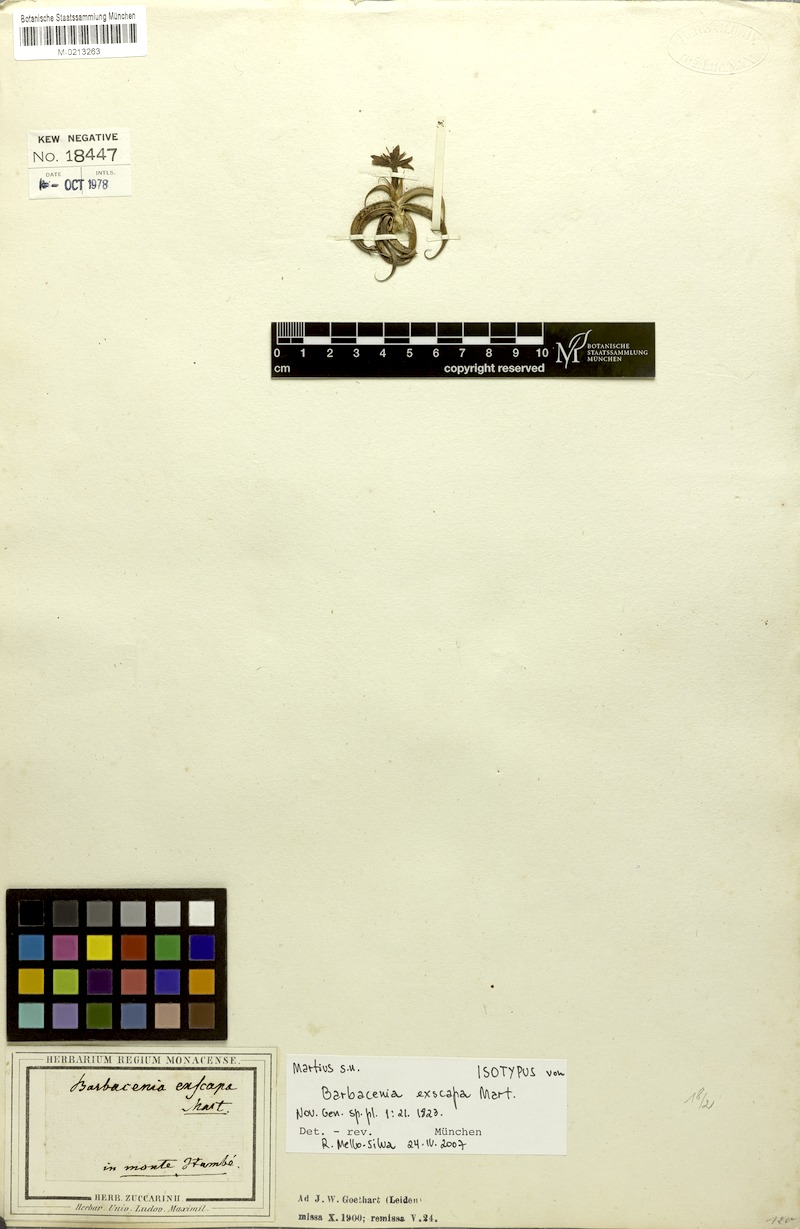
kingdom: Plantae
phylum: Tracheophyta
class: Liliopsida
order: Pandanales
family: Velloziaceae
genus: Barbacenia
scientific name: Barbacenia exscapa
